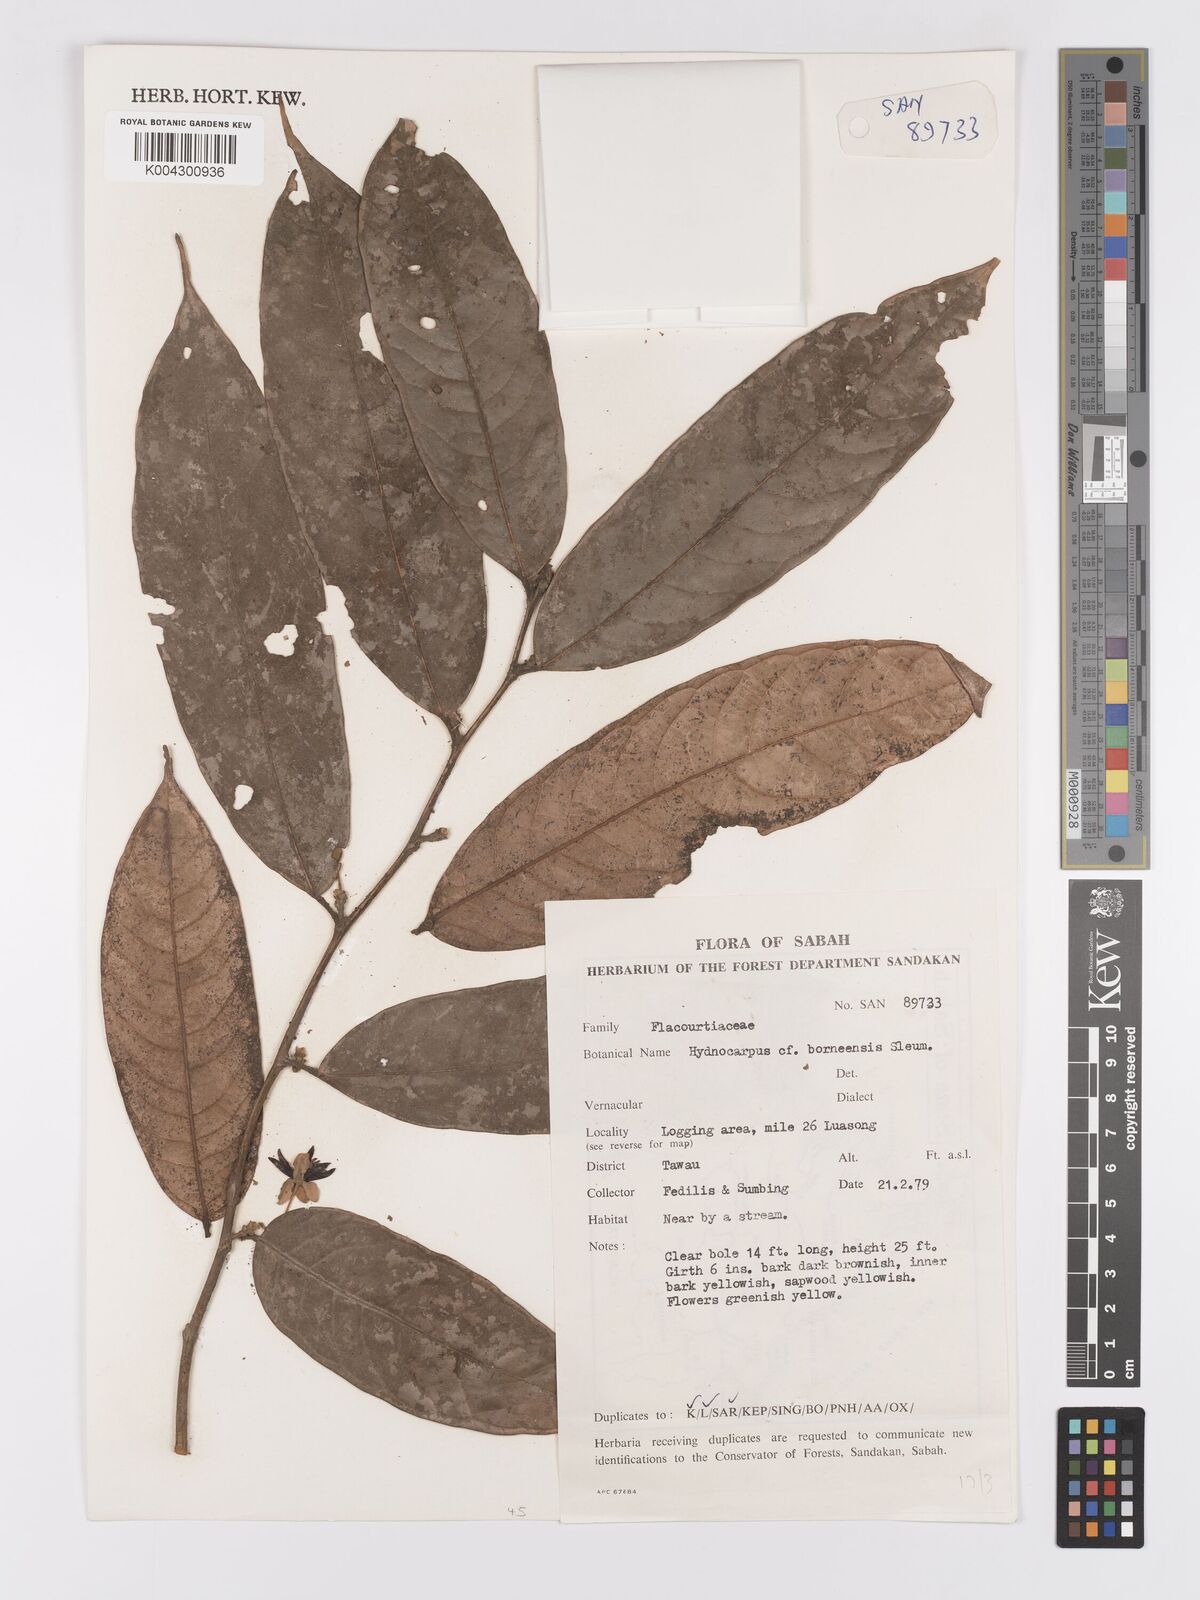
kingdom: Plantae
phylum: Tracheophyta
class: Magnoliopsida
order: Malpighiales
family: Achariaceae
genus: Hydnocarpus
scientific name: Hydnocarpus borneensis
